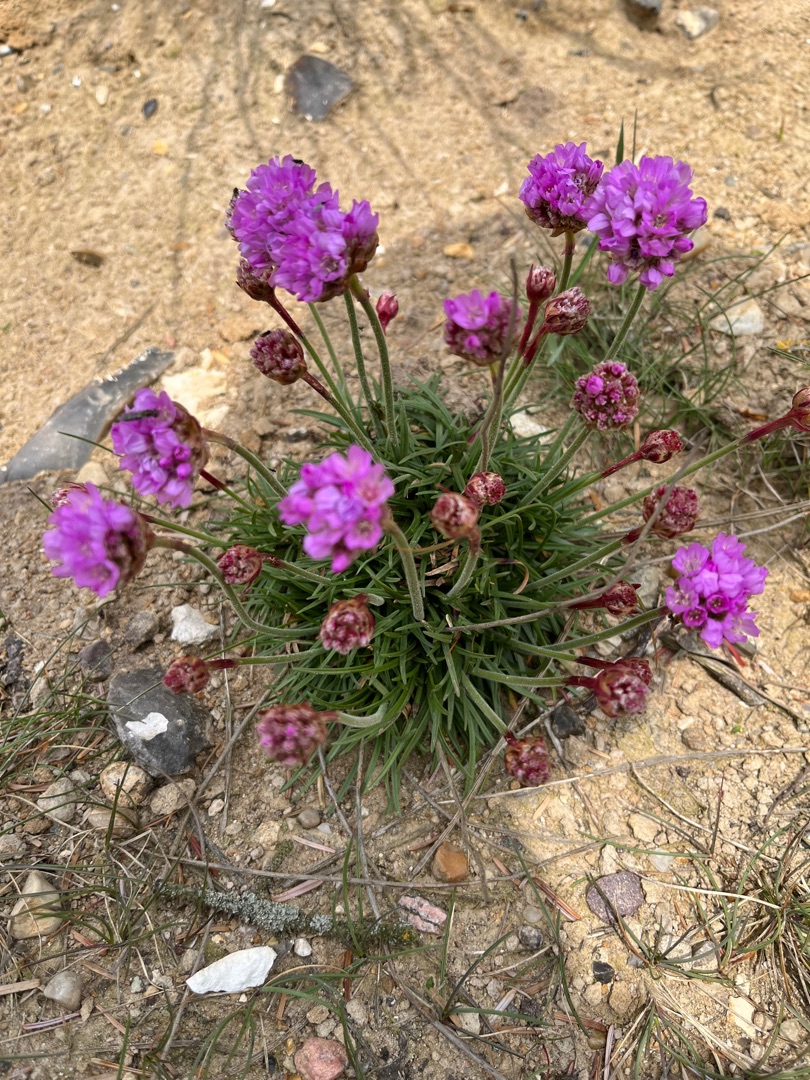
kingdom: Plantae
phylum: Tracheophyta
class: Magnoliopsida
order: Caryophyllales
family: Plumbaginaceae
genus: Armeria
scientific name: Armeria maritima
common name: Engelskgræs
